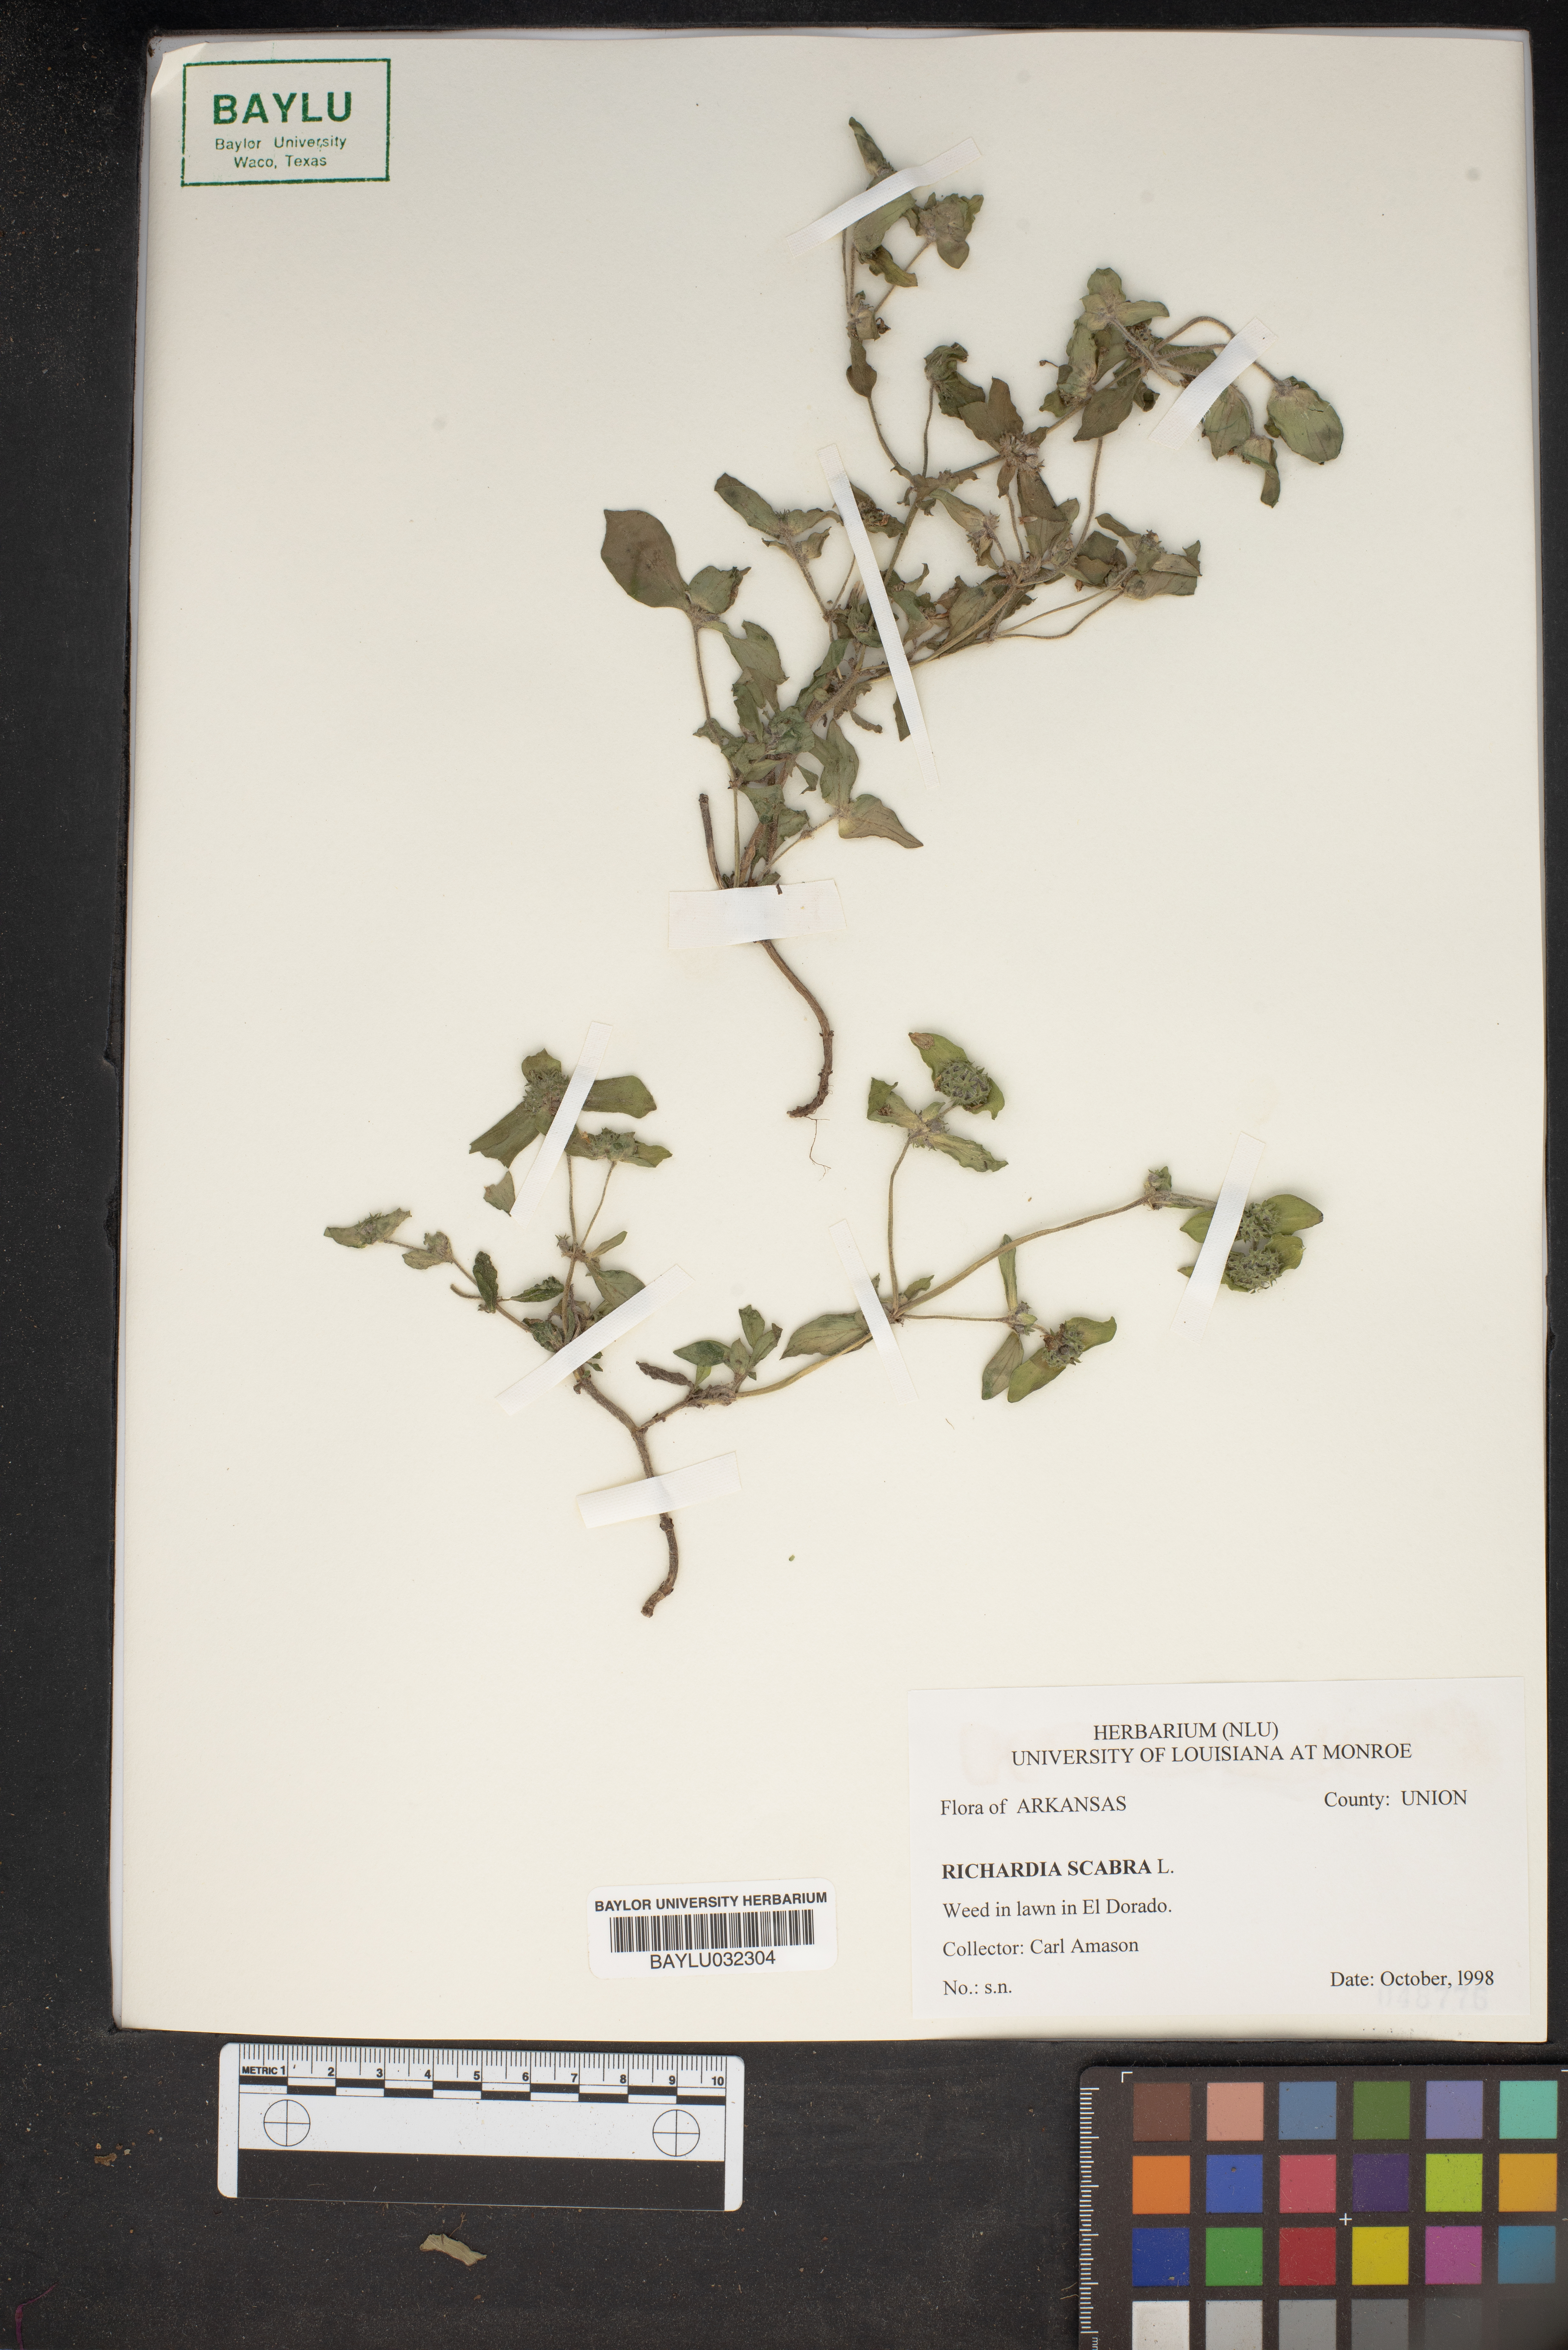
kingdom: Plantae
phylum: Tracheophyta
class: Magnoliopsida
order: Gentianales
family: Rubiaceae
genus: Richardia
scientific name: Richardia scabra
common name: Rough mexican clover
